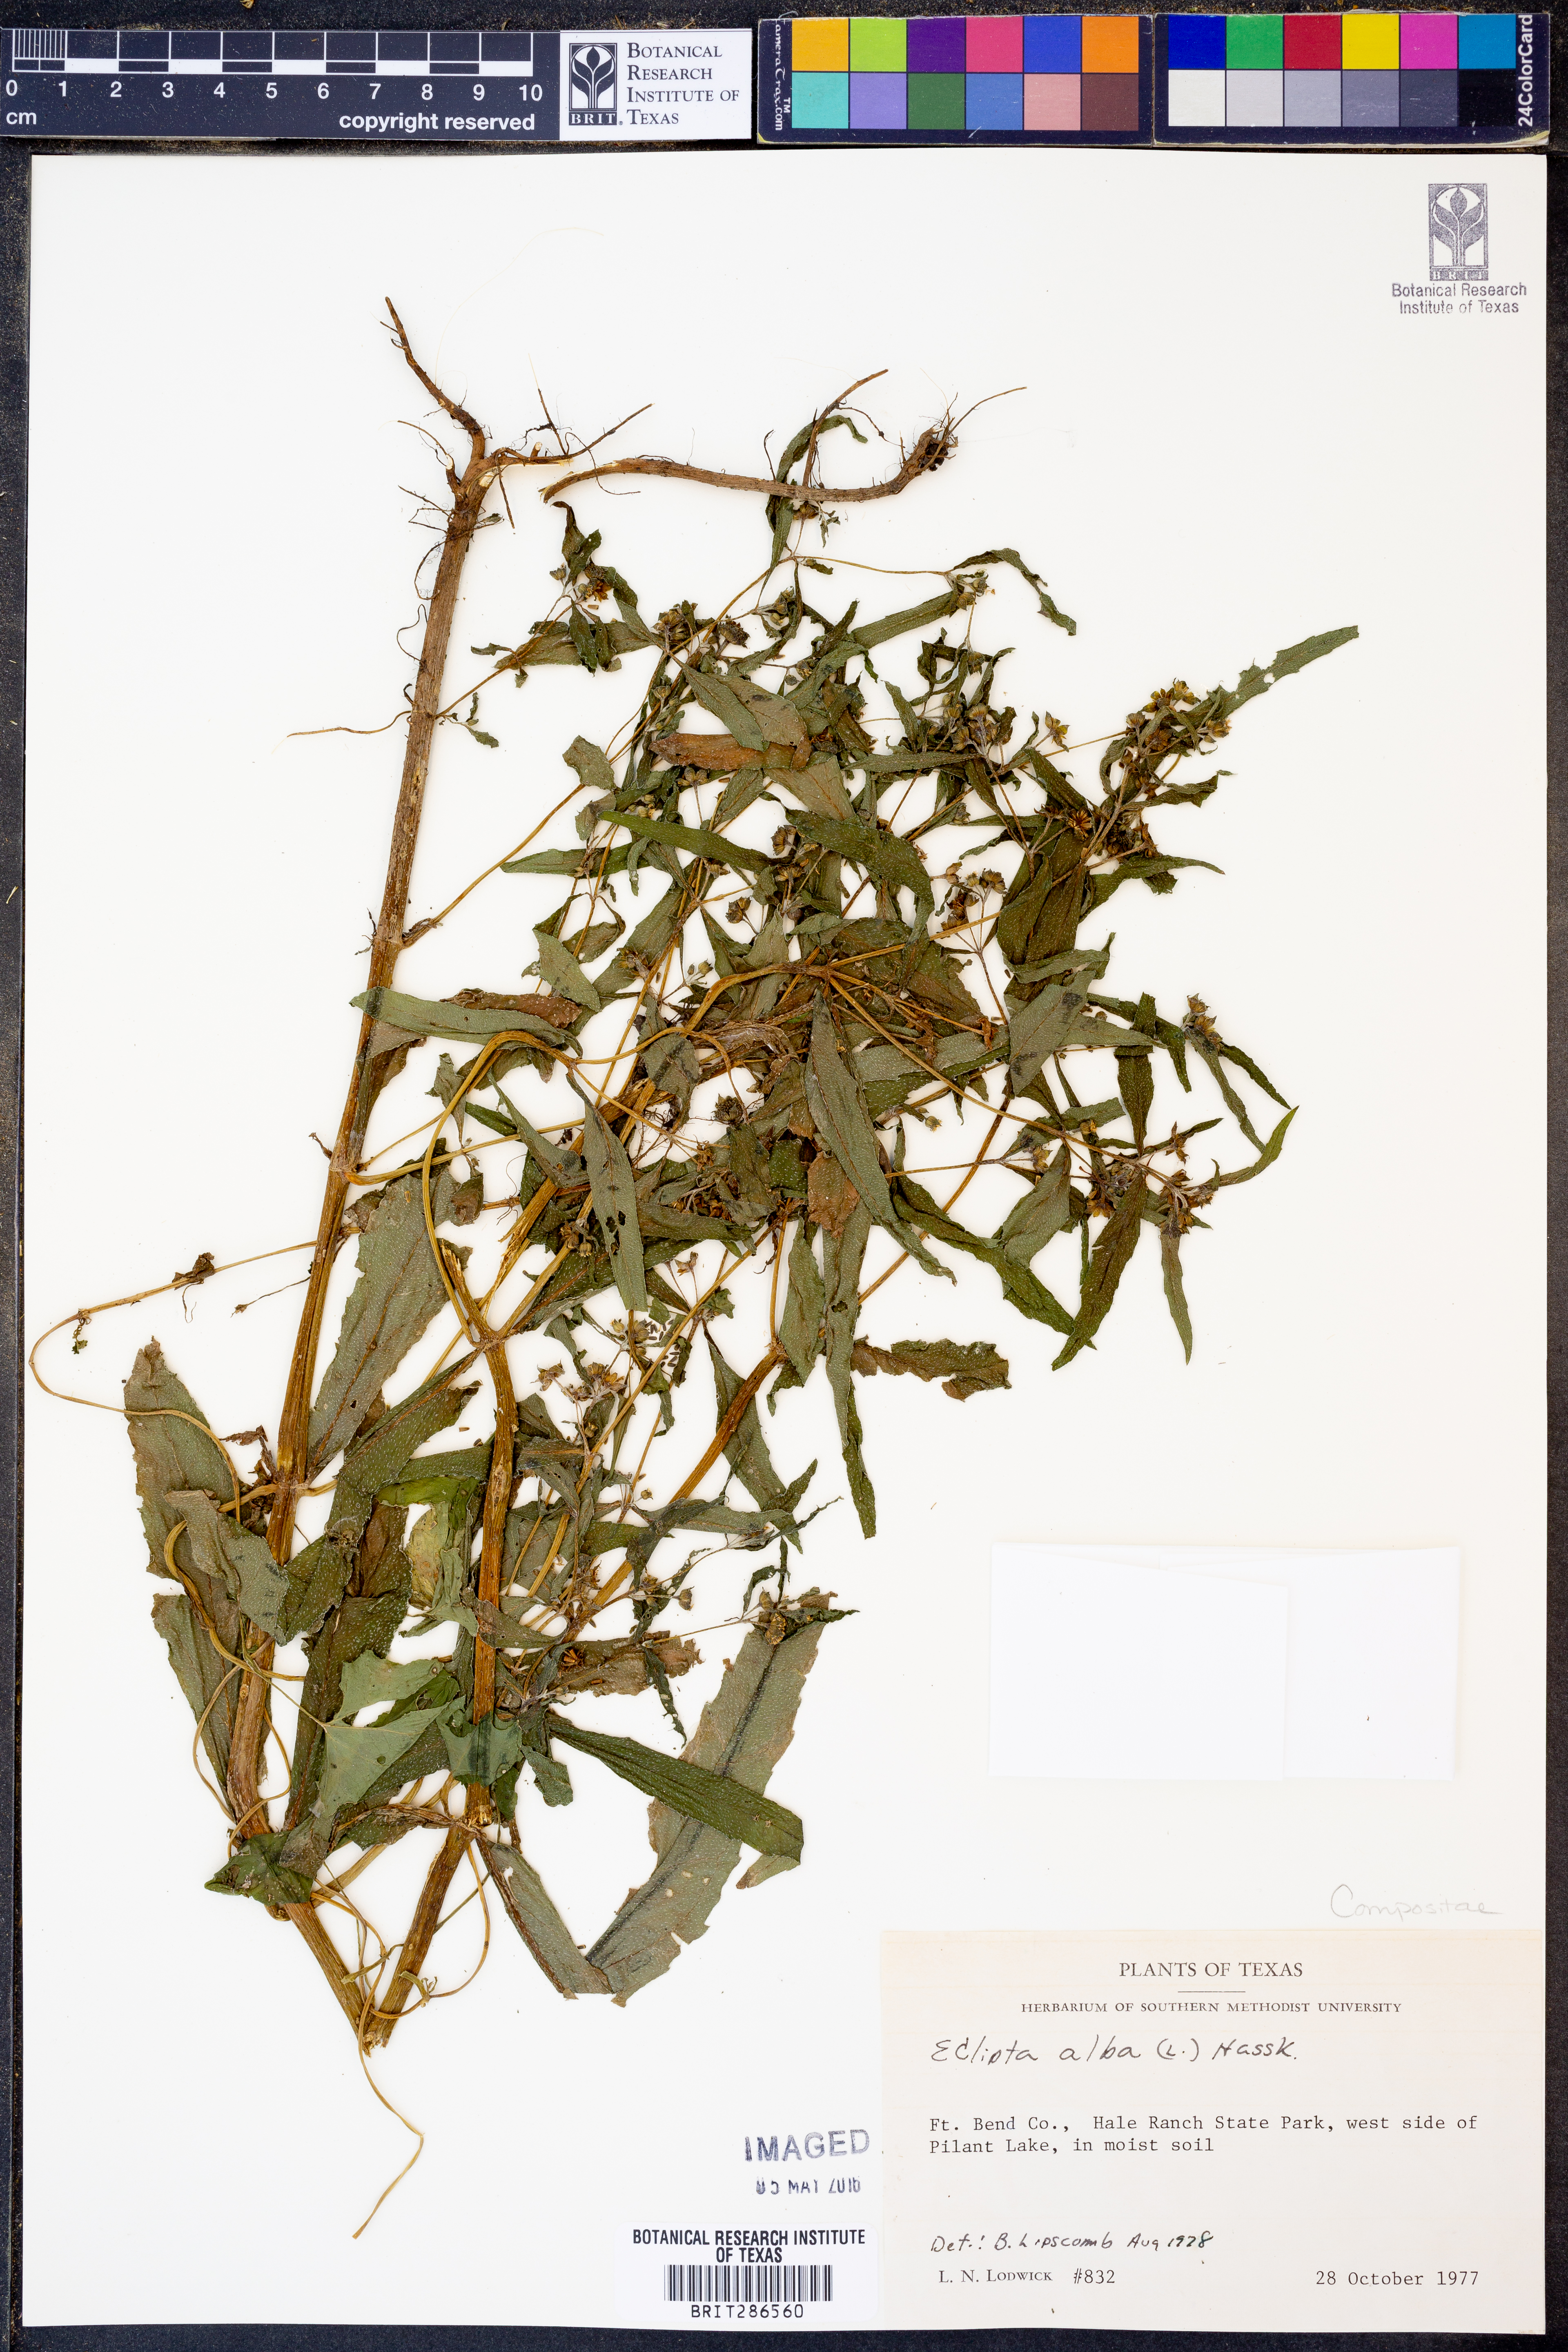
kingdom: Plantae
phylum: Tracheophyta
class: Magnoliopsida
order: Asterales
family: Asteraceae
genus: Eclipta
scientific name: Eclipta alba
